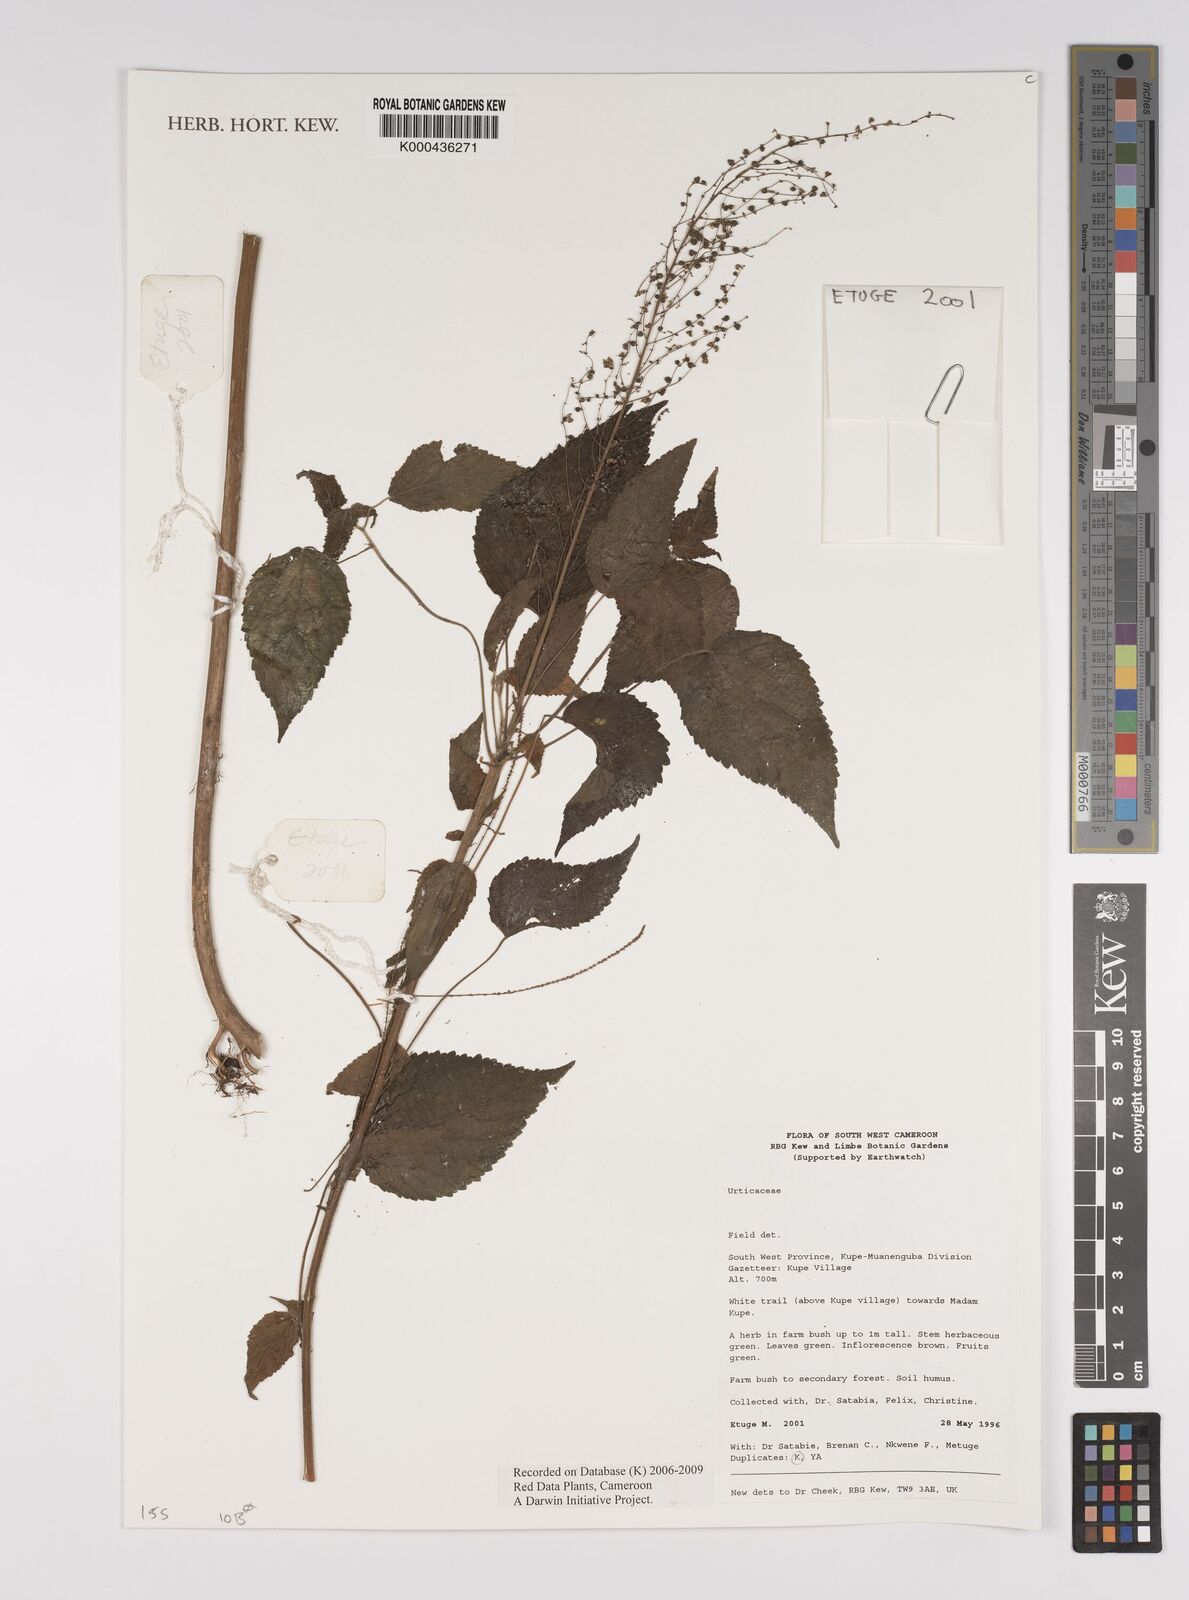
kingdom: Plantae
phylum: Tracheophyta
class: Magnoliopsida
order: Rosales
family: Urticaceae
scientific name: Urticaceae
